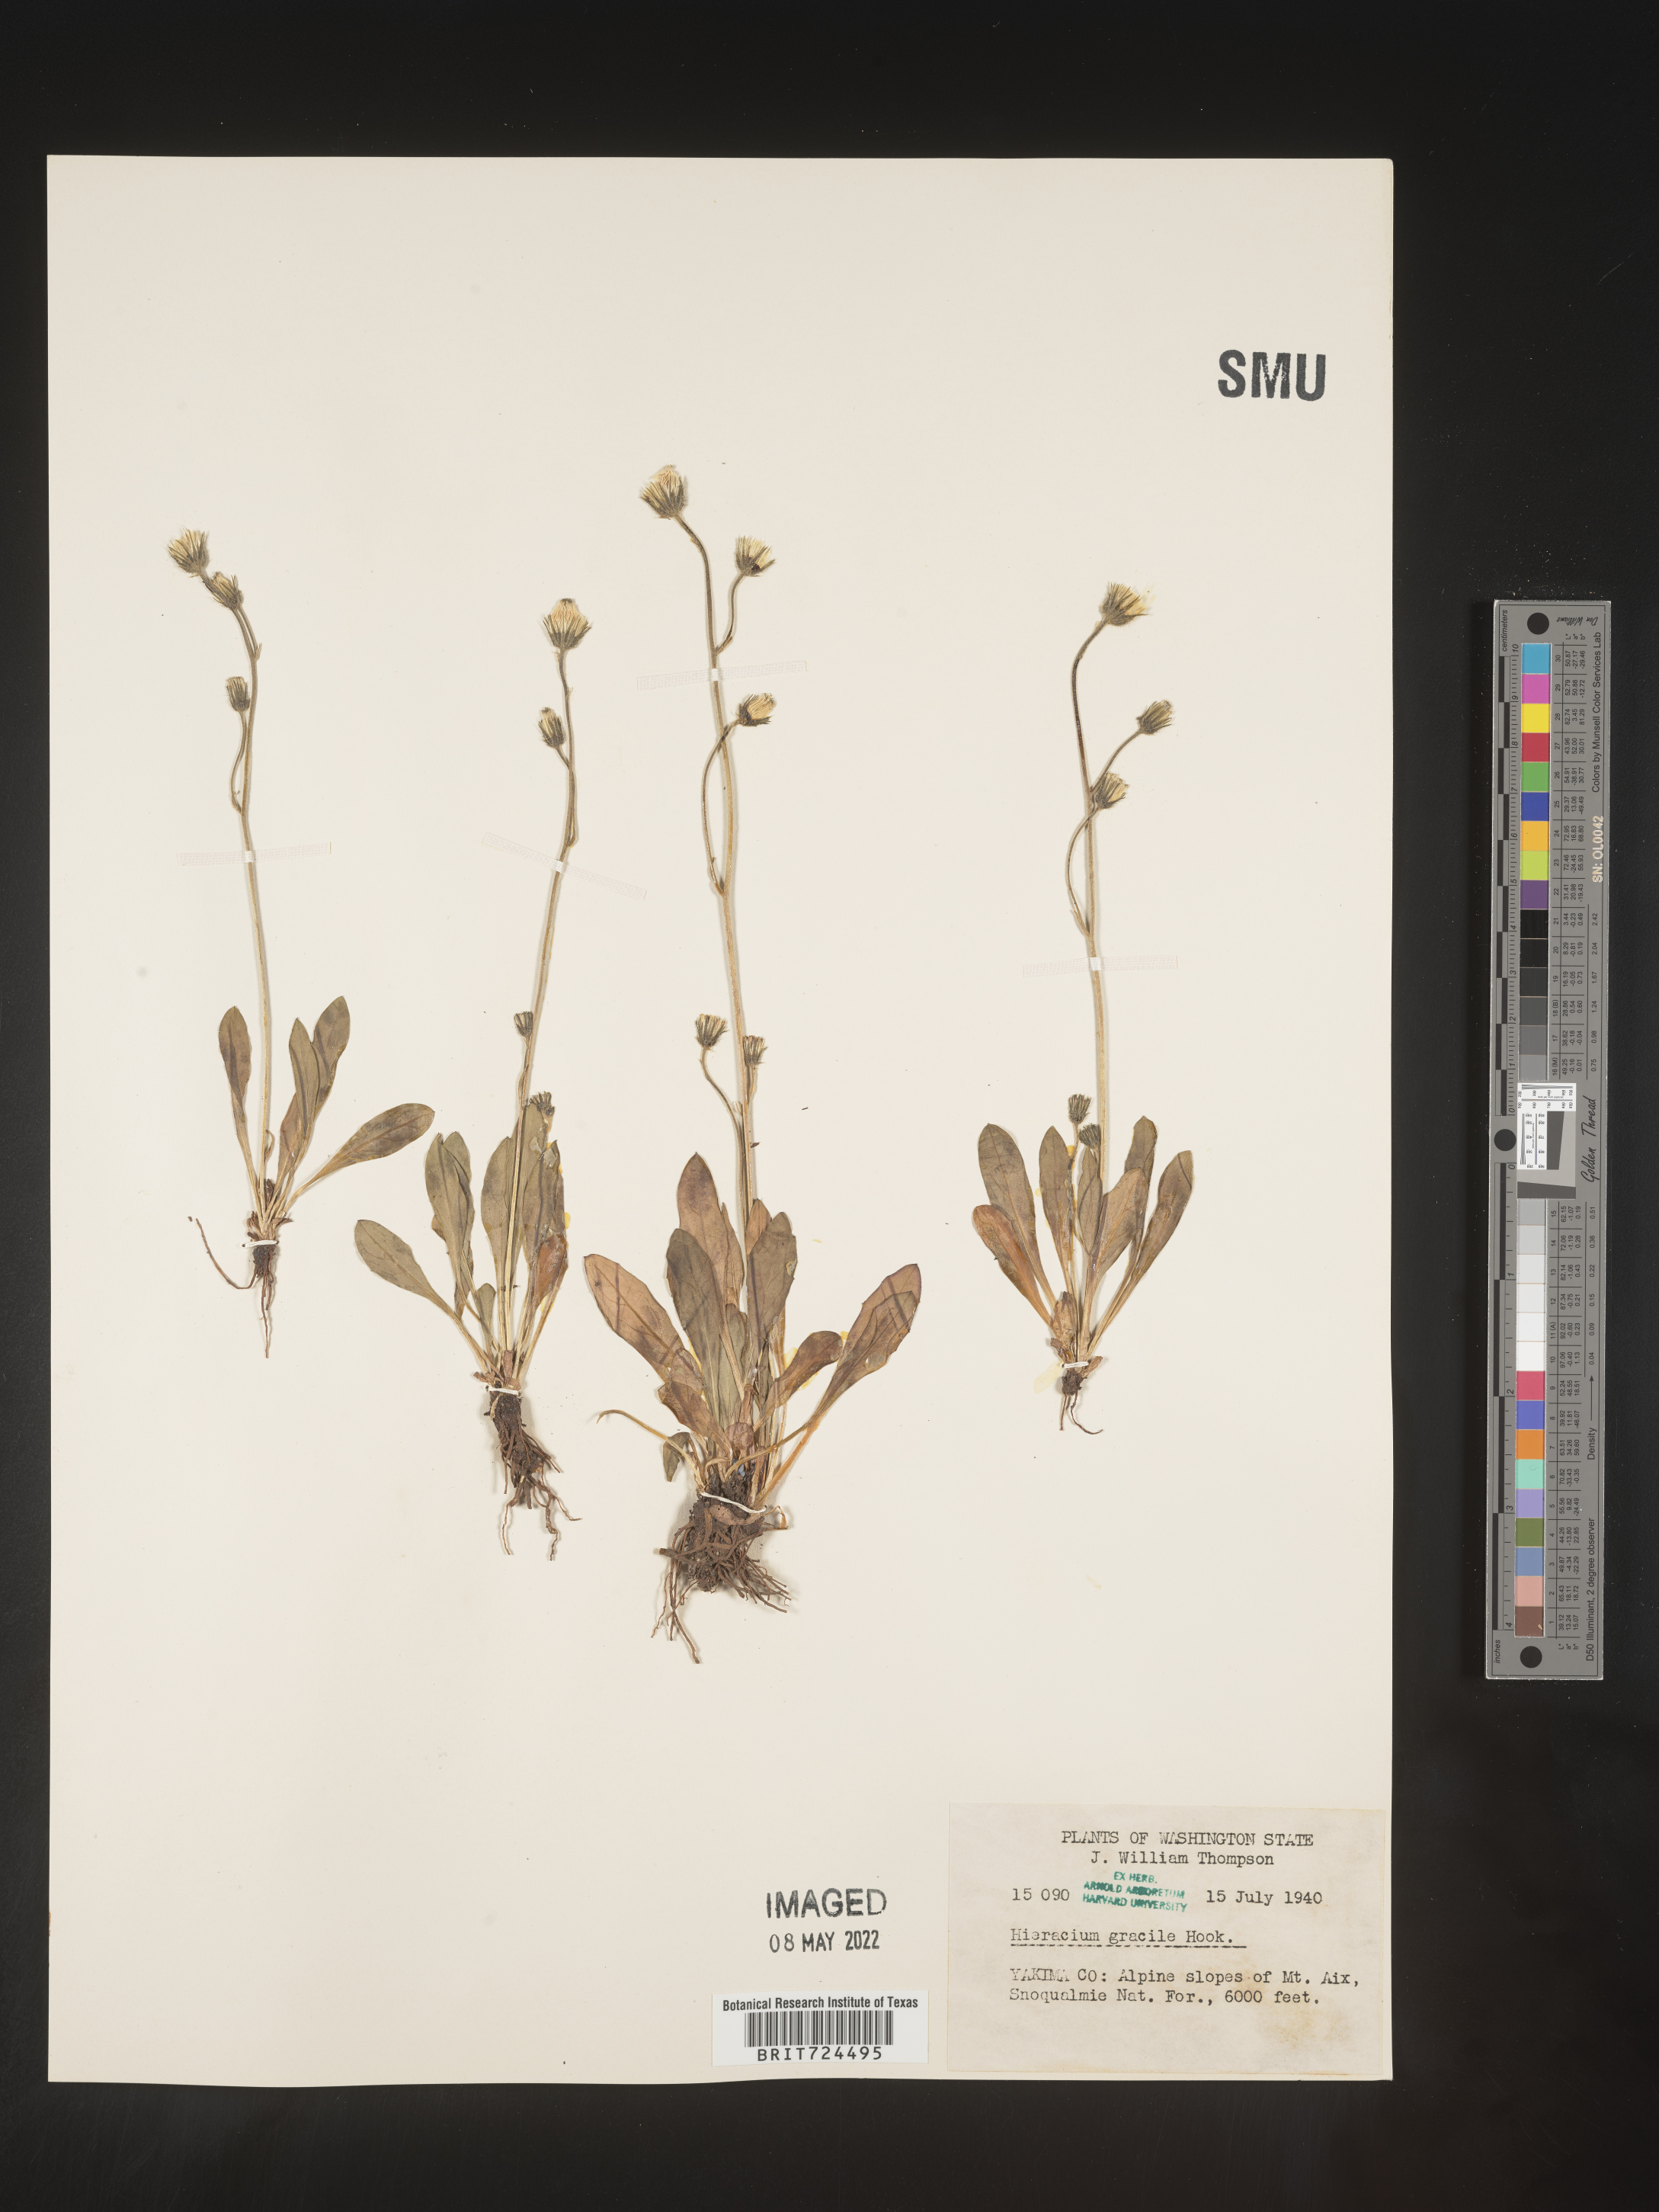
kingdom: Plantae
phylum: Tracheophyta
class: Magnoliopsida
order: Asterales
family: Asteraceae
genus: Hieracium
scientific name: Hieracium
